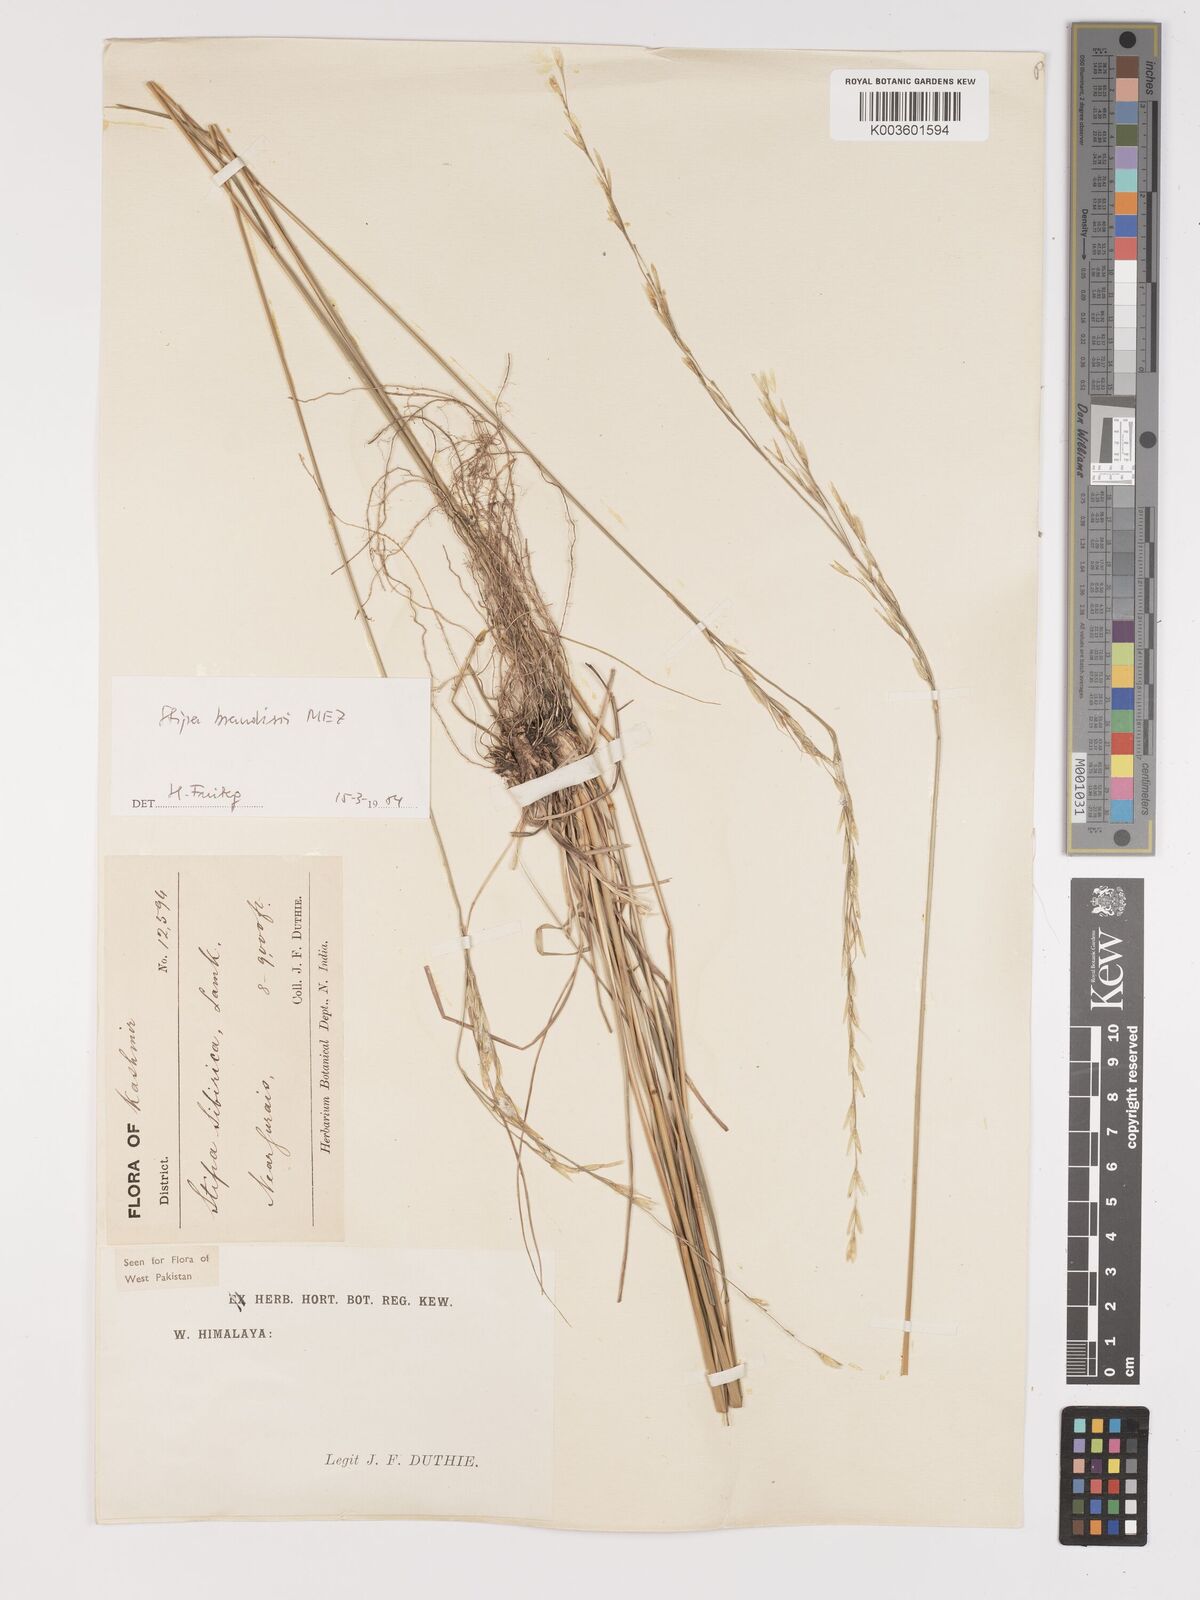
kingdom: Plantae
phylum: Tracheophyta
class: Liliopsida
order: Poales
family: Poaceae
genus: Achnatherum
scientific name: Achnatherum brandisii
